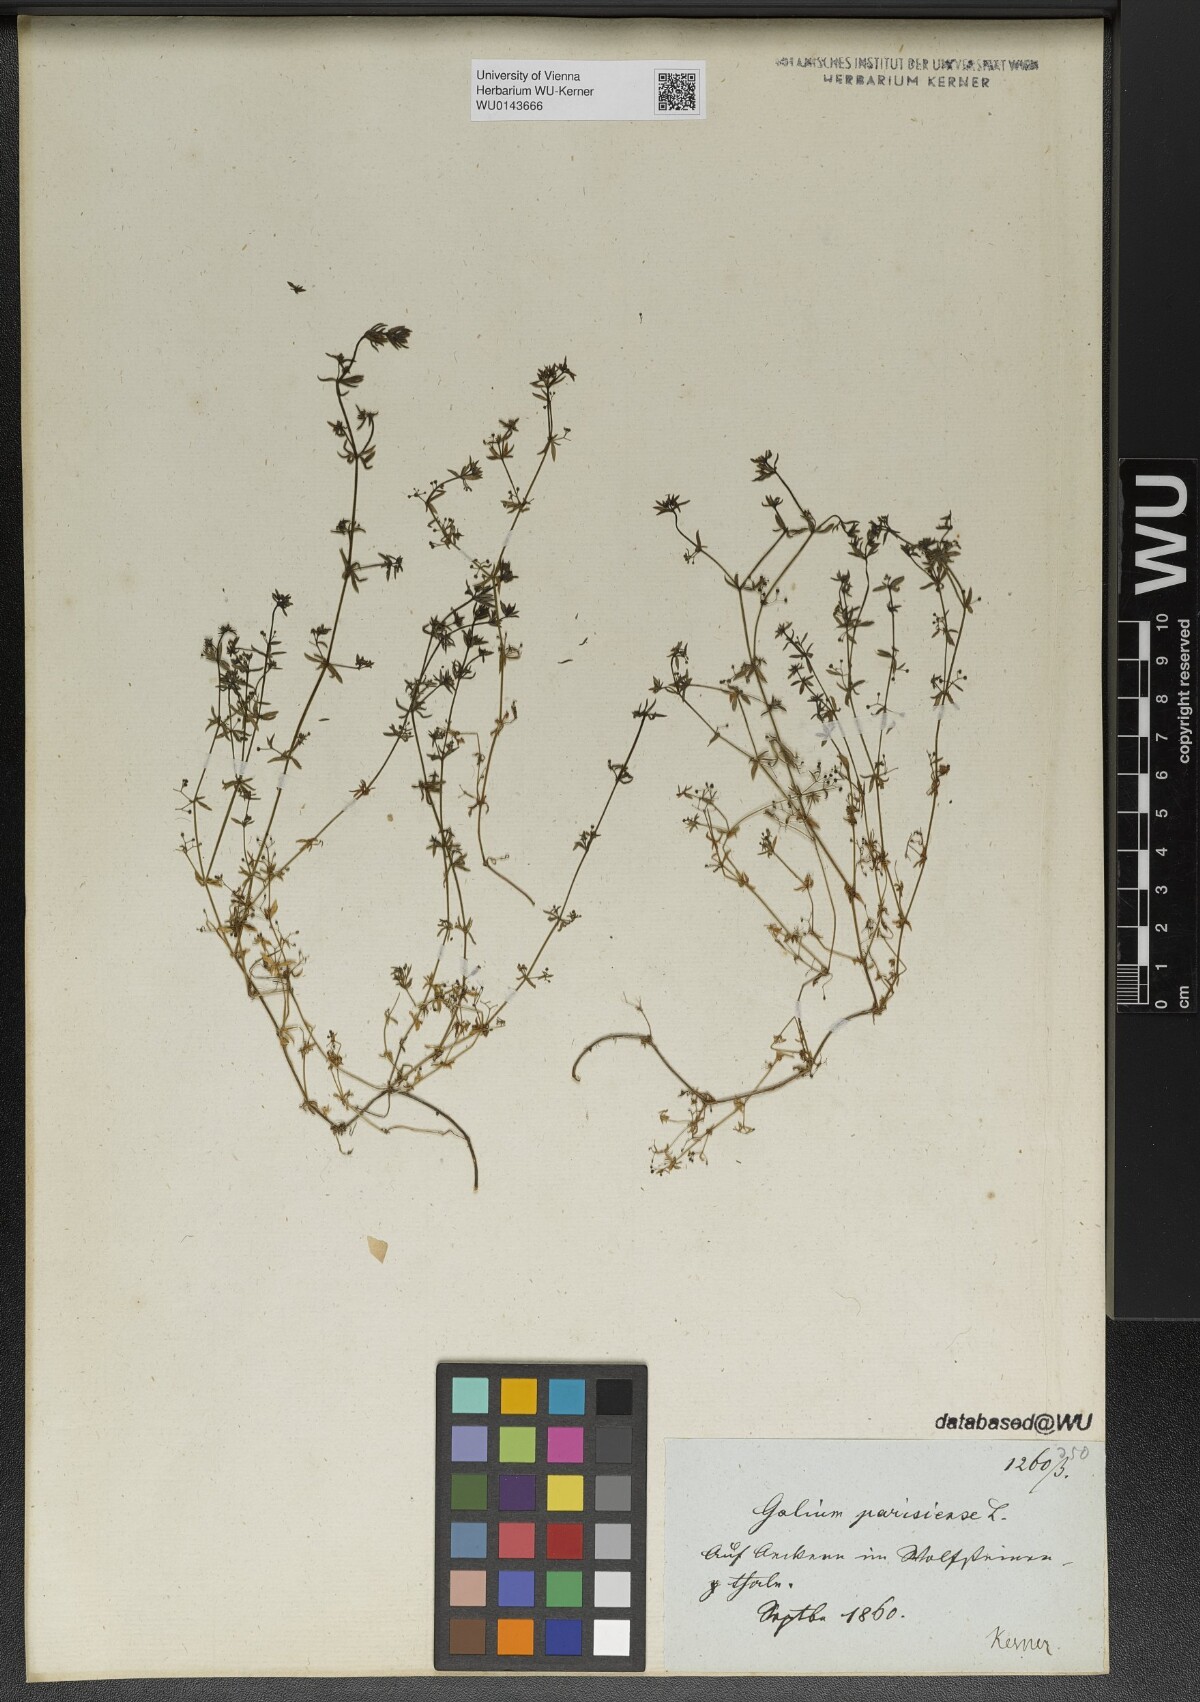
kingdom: Plantae
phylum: Tracheophyta
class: Magnoliopsida
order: Gentianales
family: Rubiaceae
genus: Galium
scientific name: Galium parisiense
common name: Wall bedstraw
